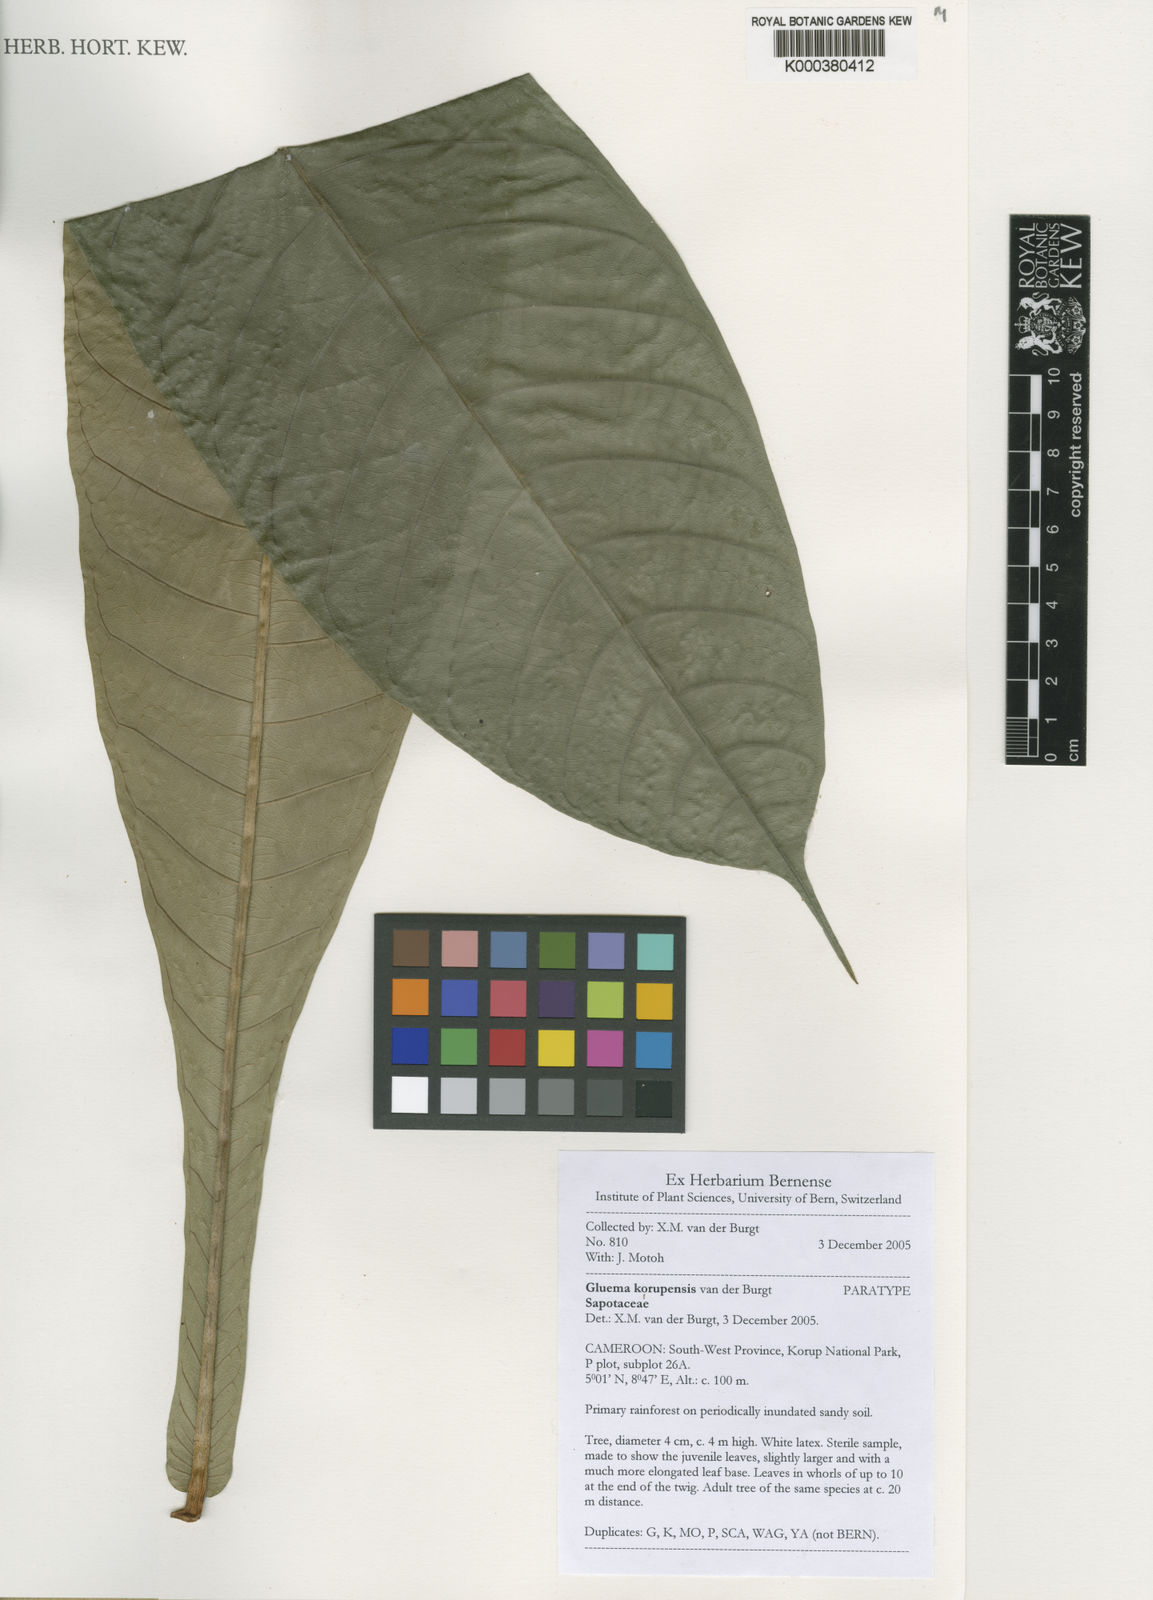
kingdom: Plantae
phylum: Tracheophyta
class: Magnoliopsida
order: Ericales
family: Sapotaceae
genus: Gluema
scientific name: Gluema korupensis
